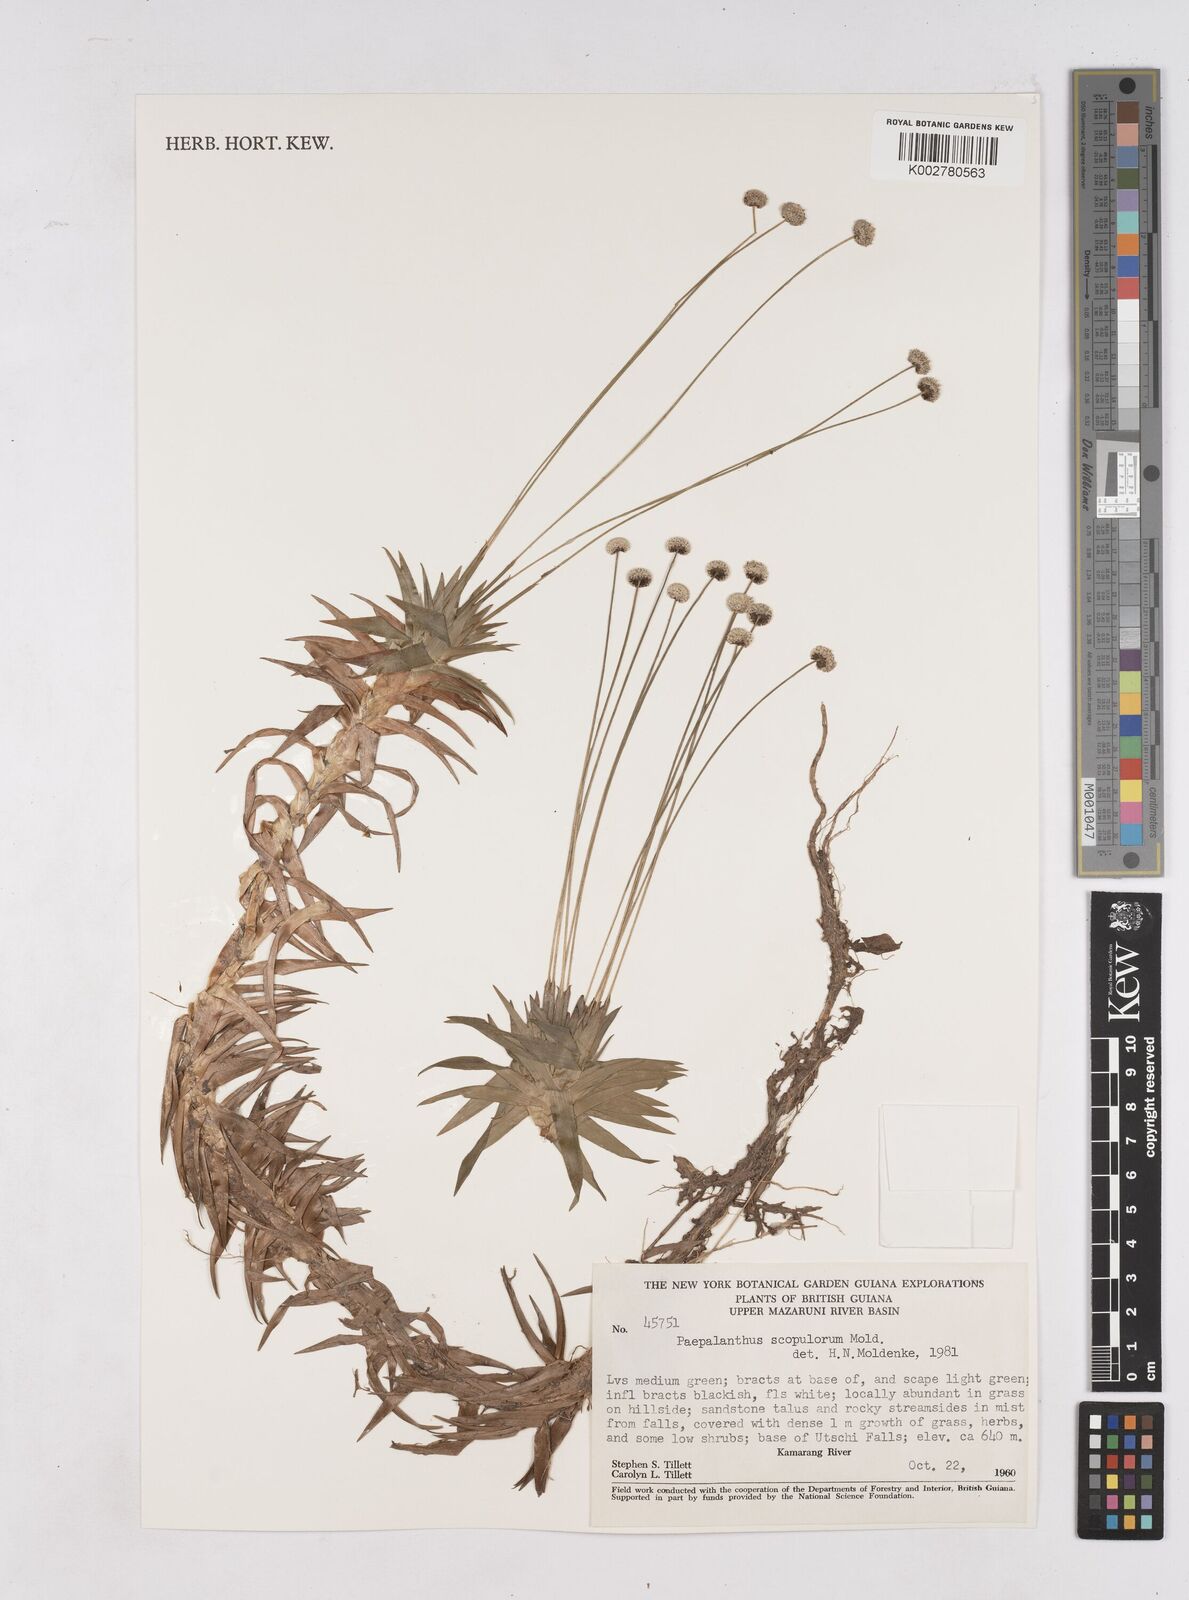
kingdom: Plantae
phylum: Tracheophyta
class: Liliopsida
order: Poales
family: Eriocaulaceae
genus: Paepalanthus
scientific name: Paepalanthus scopulorum
